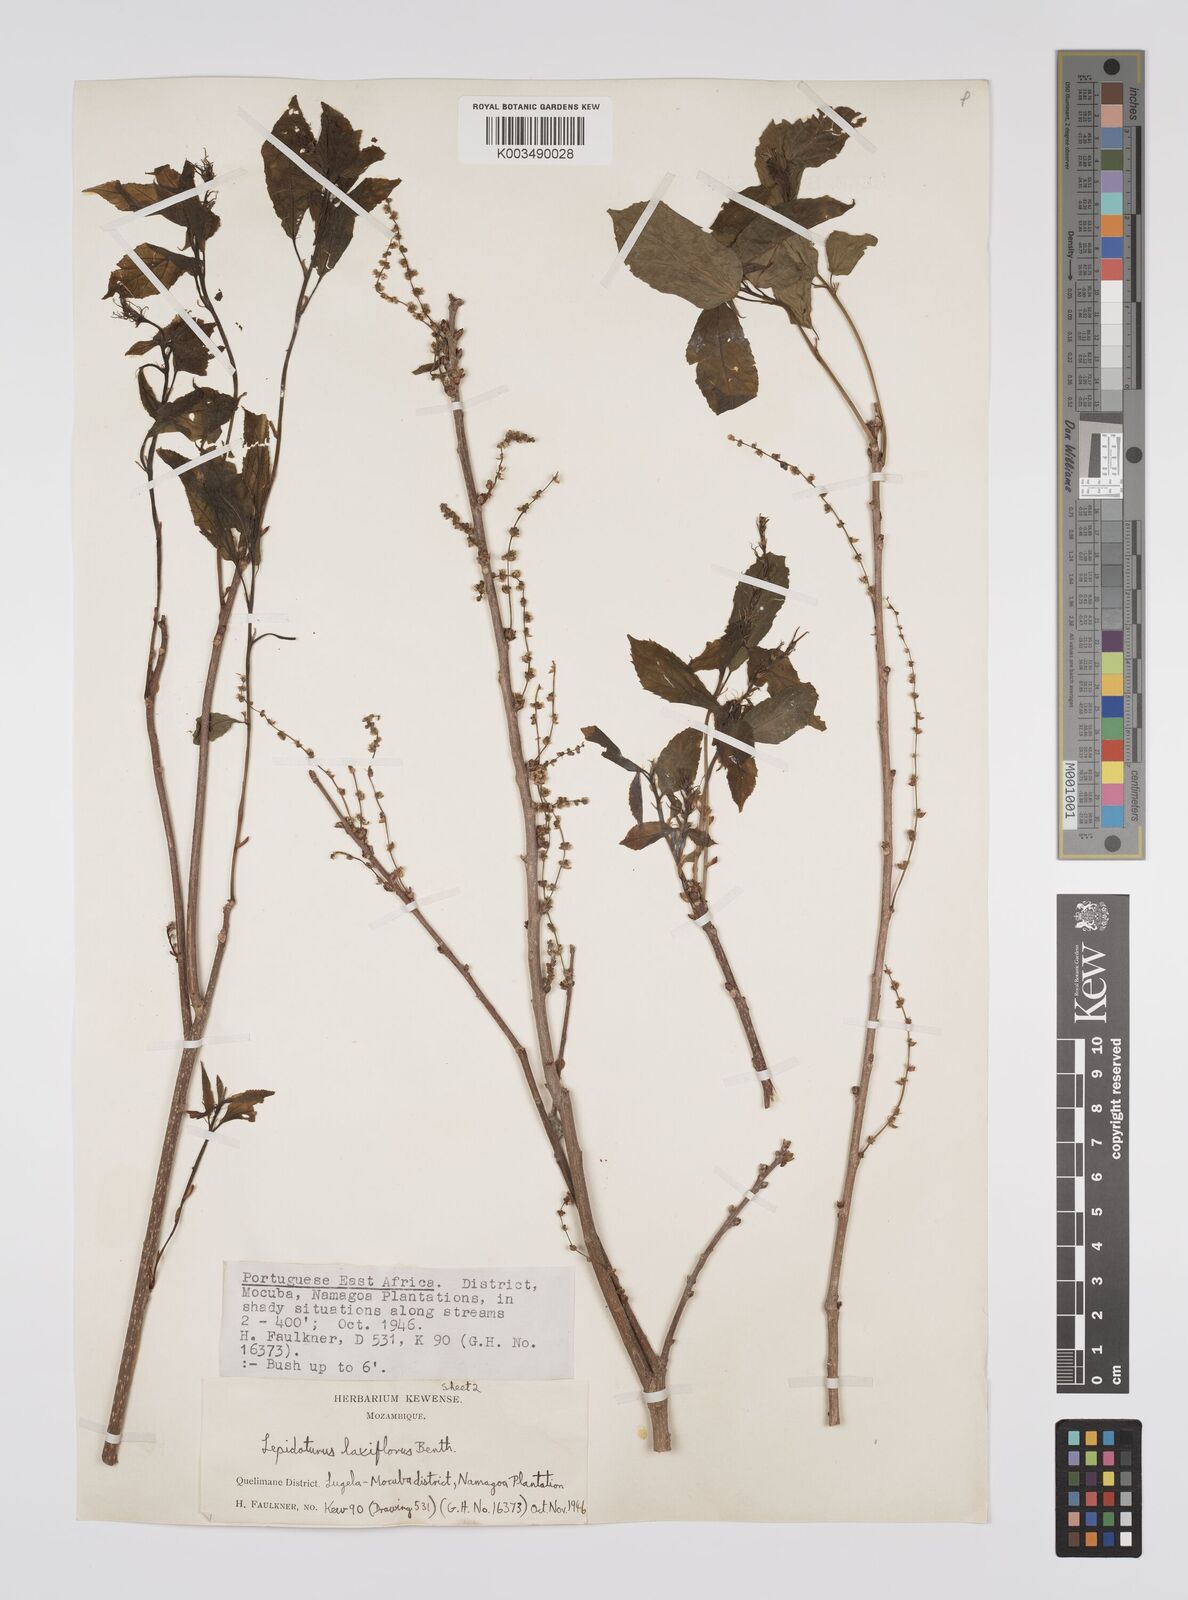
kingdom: Plantae
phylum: Tracheophyta
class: Magnoliopsida
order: Malpighiales
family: Euphorbiaceae
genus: Alchornea
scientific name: Alchornea laxiflora
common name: Lowveld bead-string
